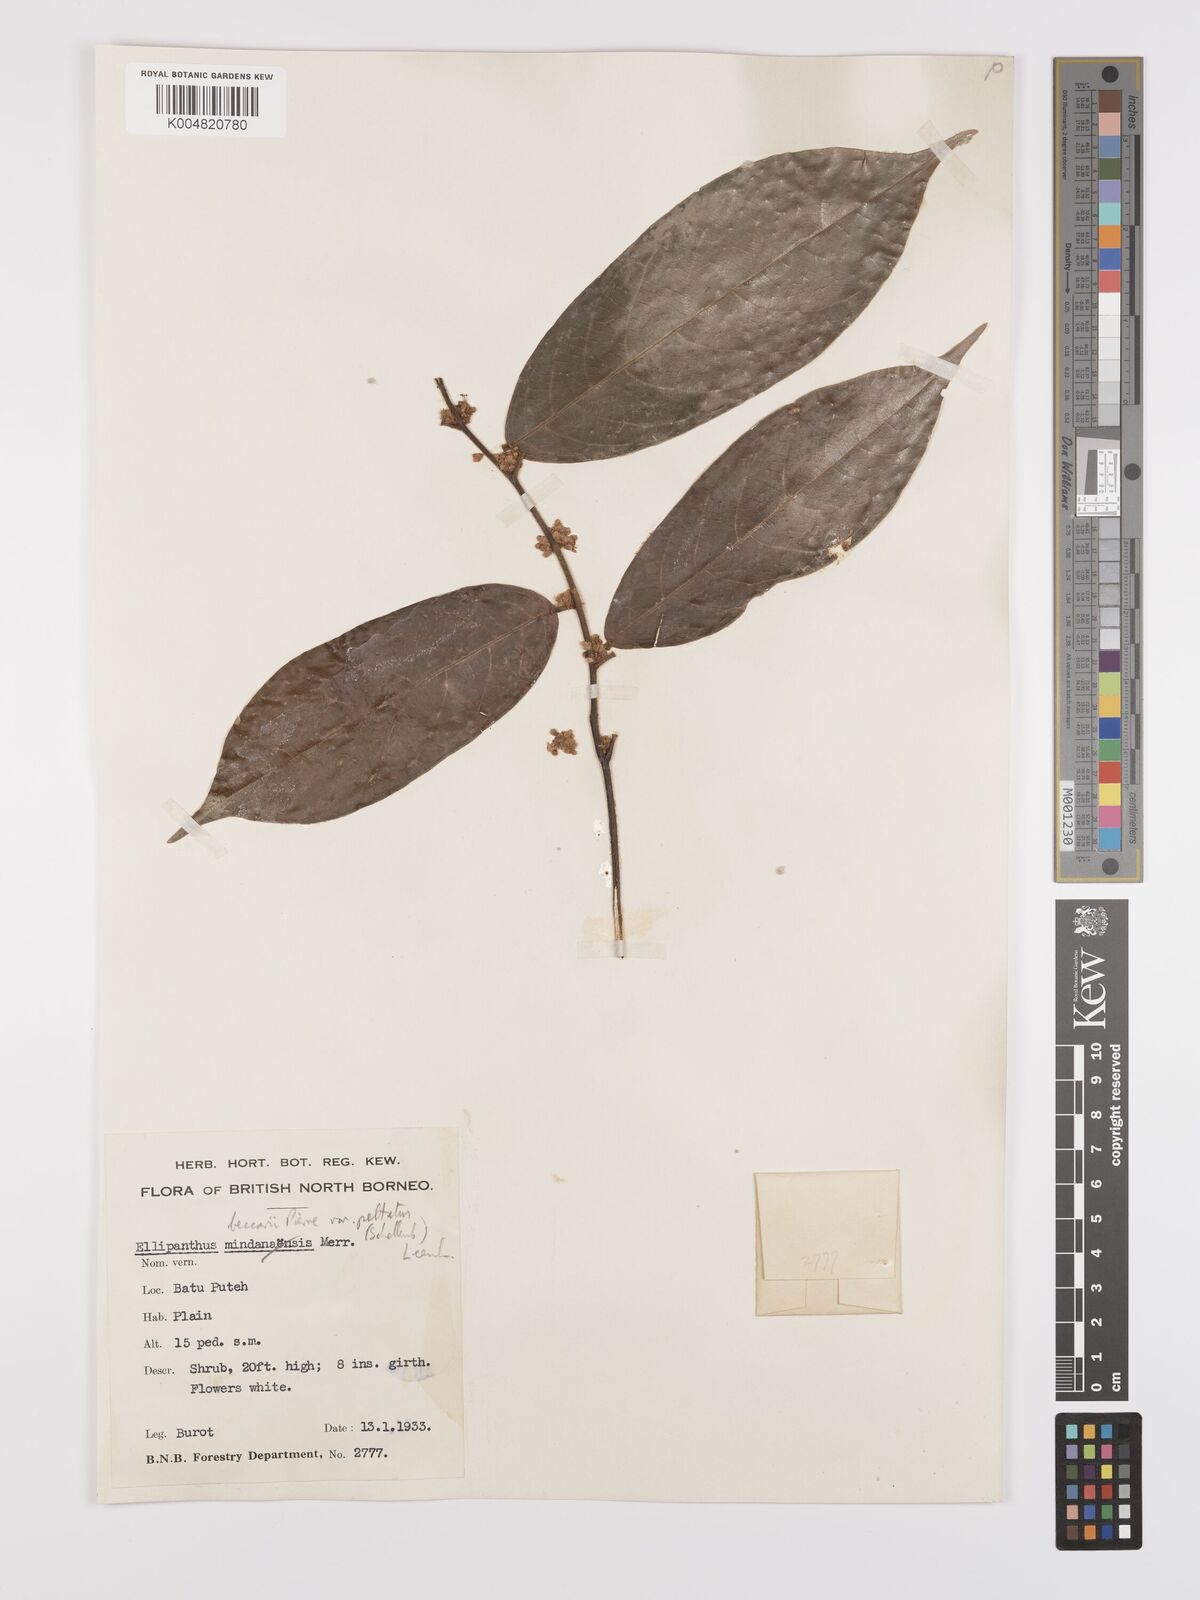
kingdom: Plantae
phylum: Tracheophyta
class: Magnoliopsida
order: Oxalidales
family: Connaraceae
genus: Ellipanthus
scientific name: Ellipanthus beccarii
